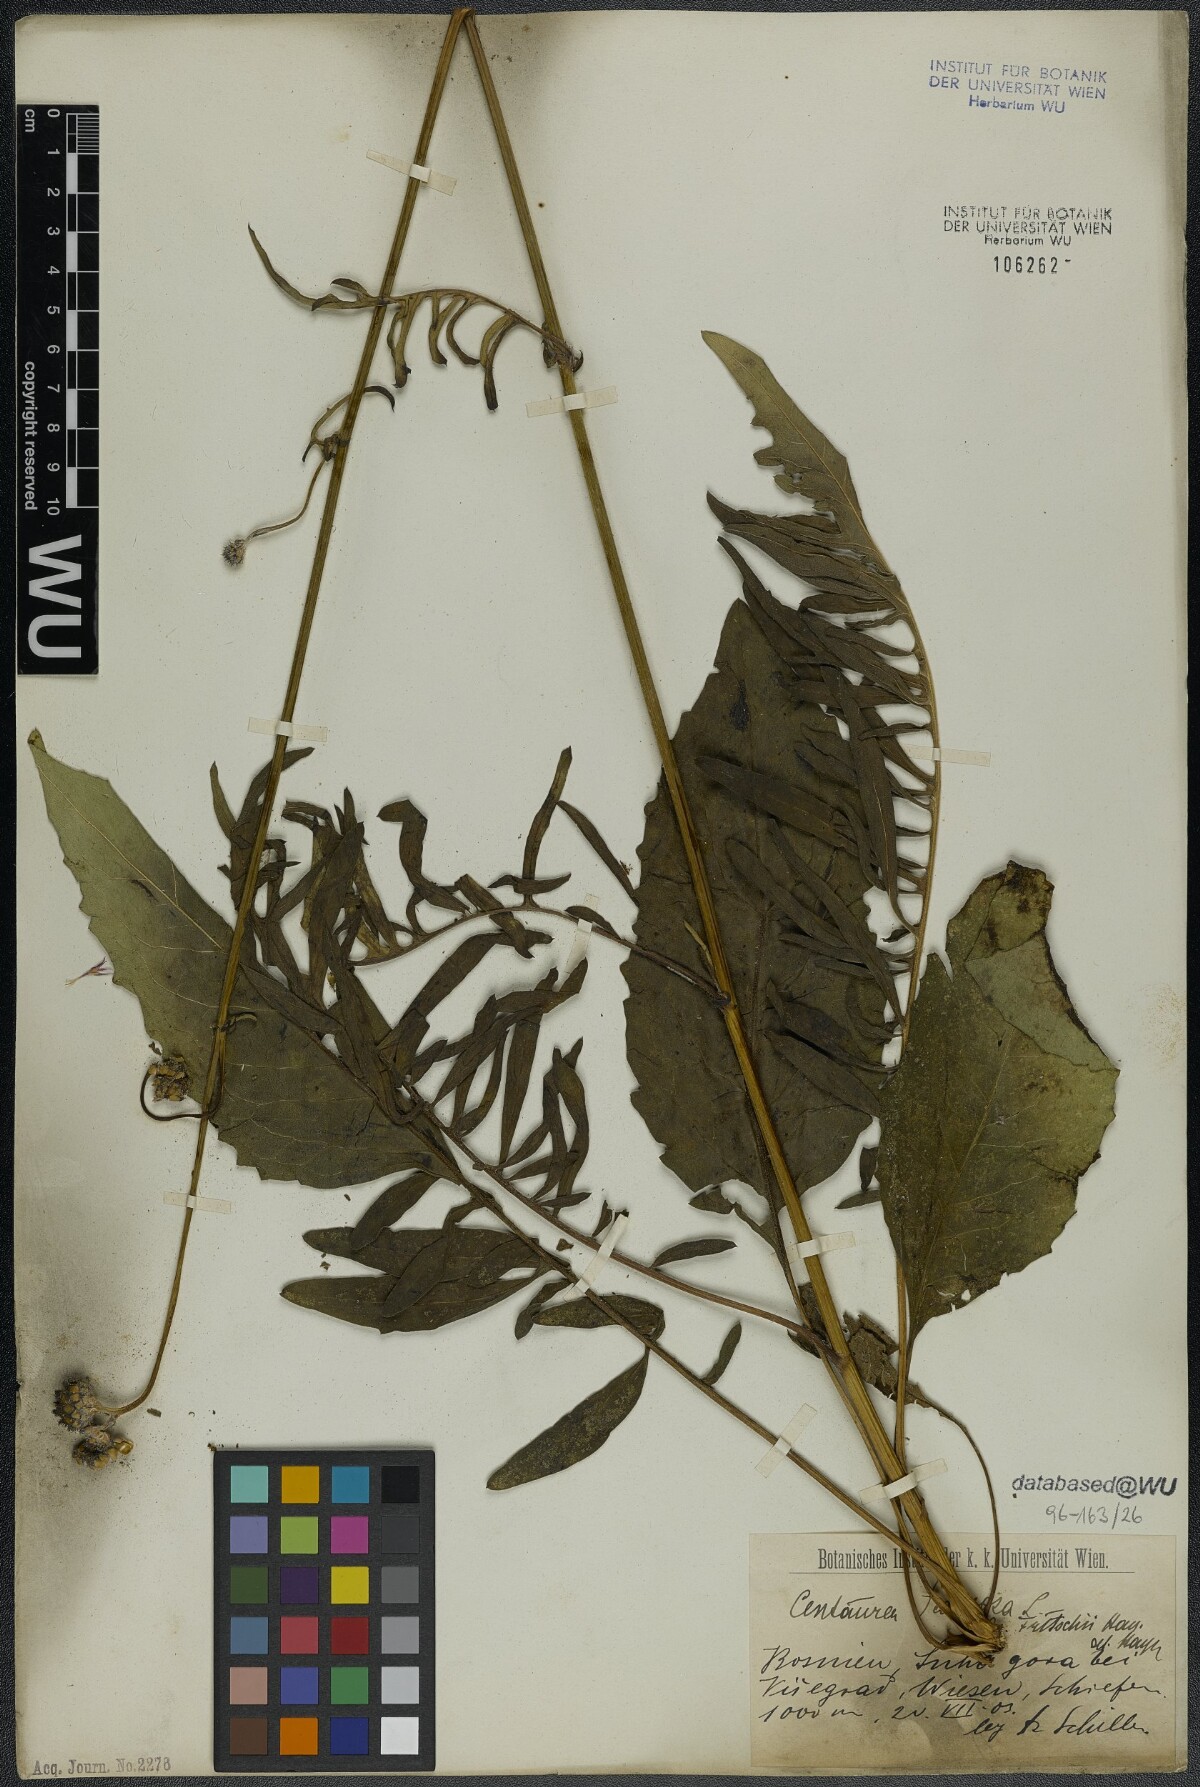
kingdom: Plantae
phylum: Tracheophyta
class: Magnoliopsida
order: Asterales
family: Asteraceae
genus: Centaurea
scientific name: Centaurea scabiosa
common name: Greater knapweed
